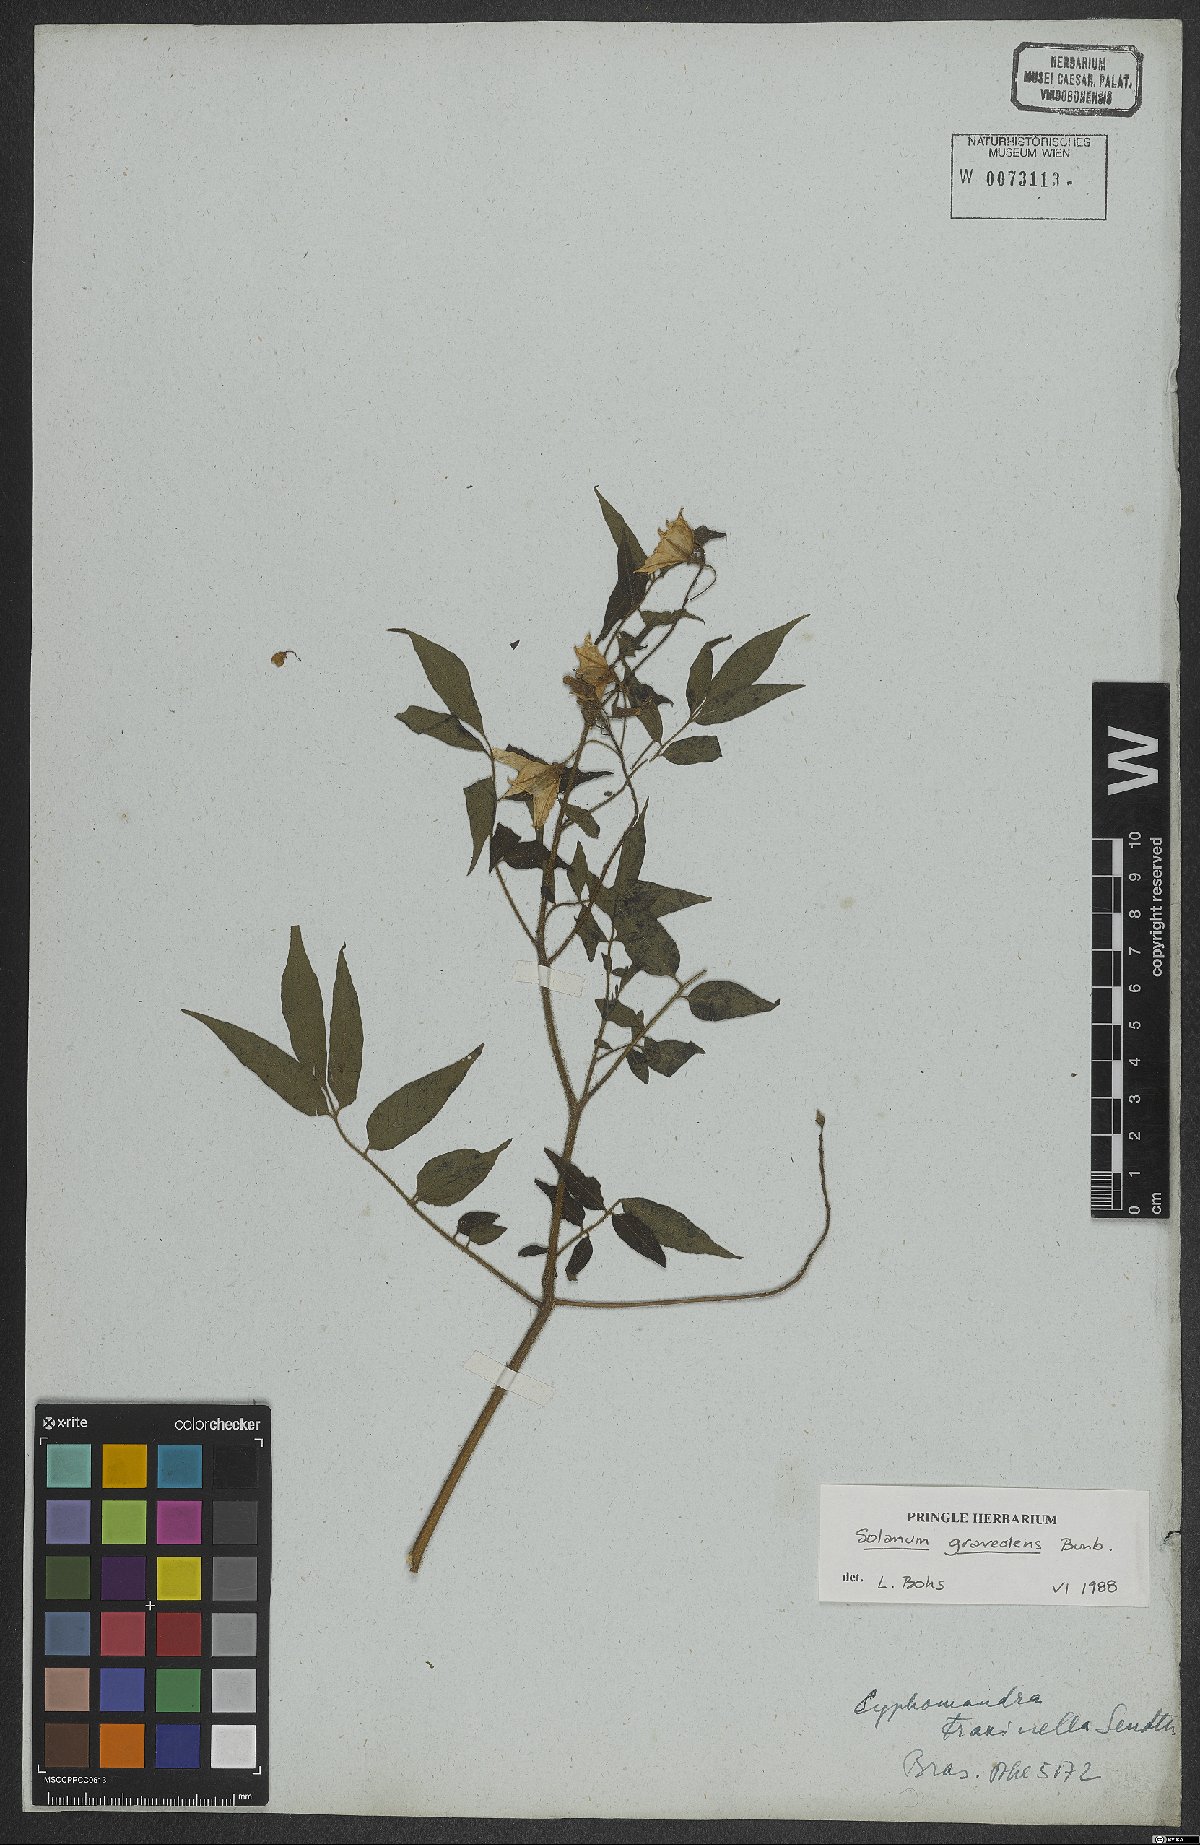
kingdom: Plantae
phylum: Tracheophyta
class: Magnoliopsida
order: Solanales
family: Solanaceae
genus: Solanum
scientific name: Solanum graveolens
